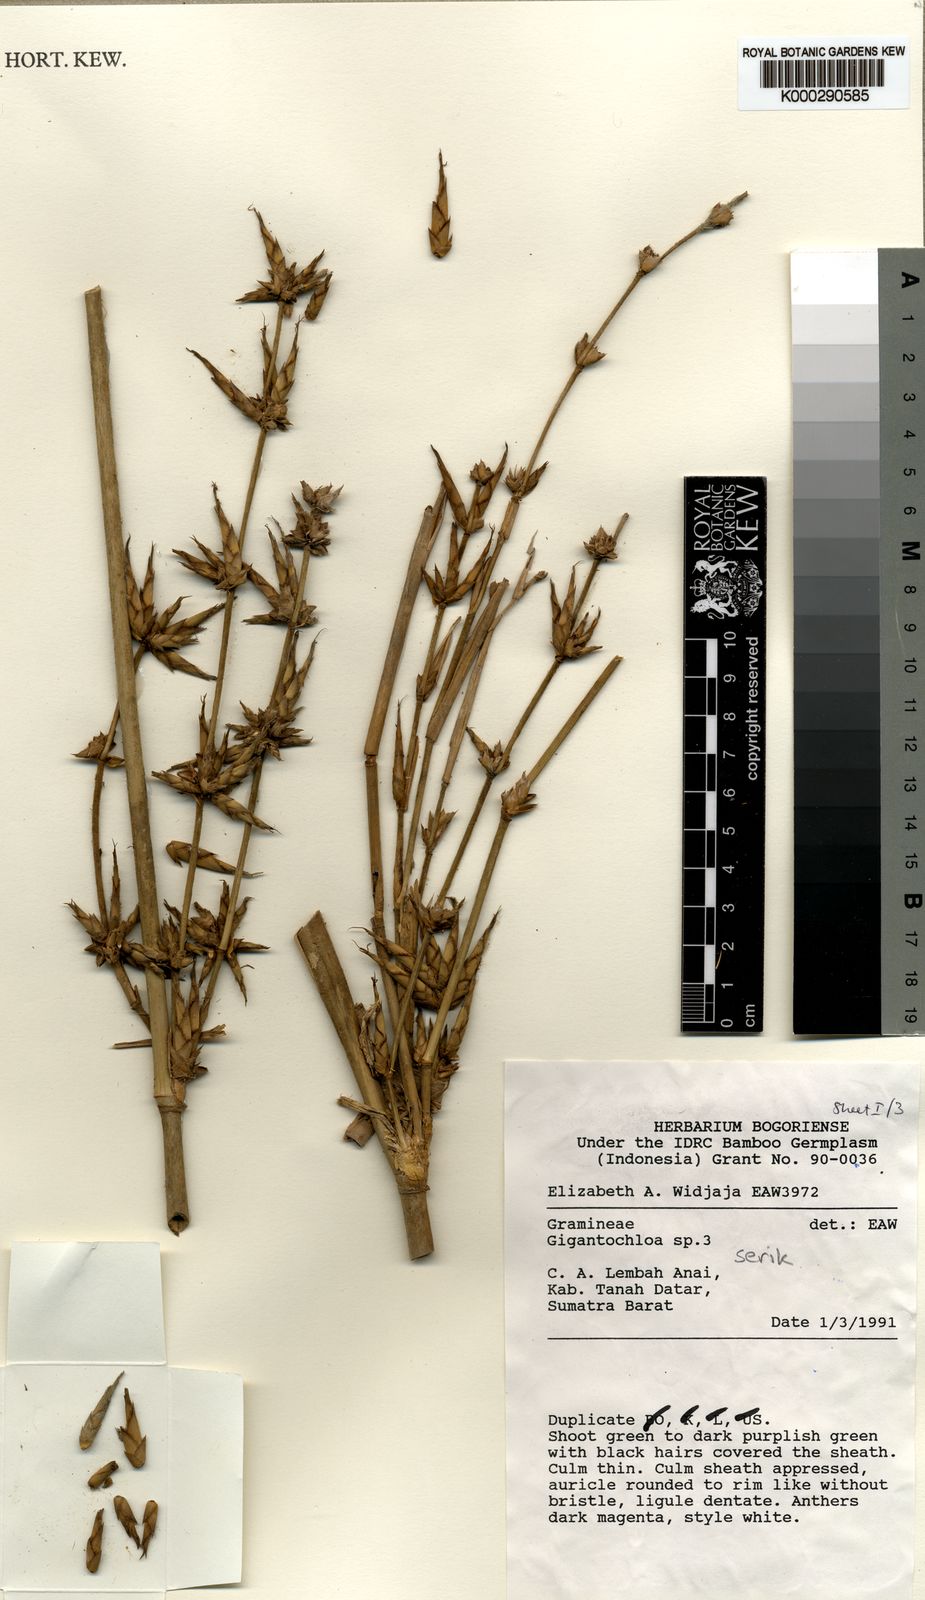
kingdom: Plantae
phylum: Tracheophyta
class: Liliopsida
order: Poales
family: Poaceae
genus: Gigantochloa
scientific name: Gigantochloa serik
